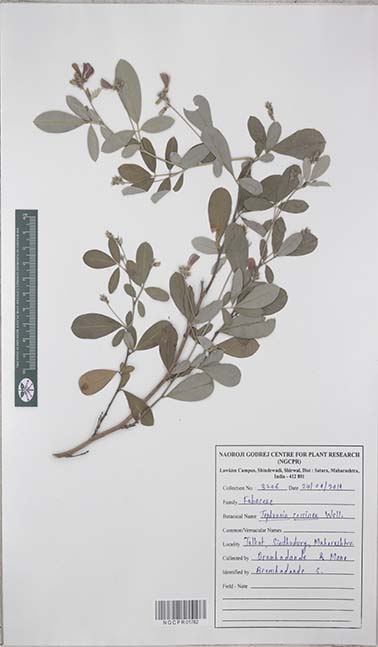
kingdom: Plantae
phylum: Tracheophyta
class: Magnoliopsida
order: Fabales
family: Fabaceae
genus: Tephrosia
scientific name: Tephrosia coccinea
